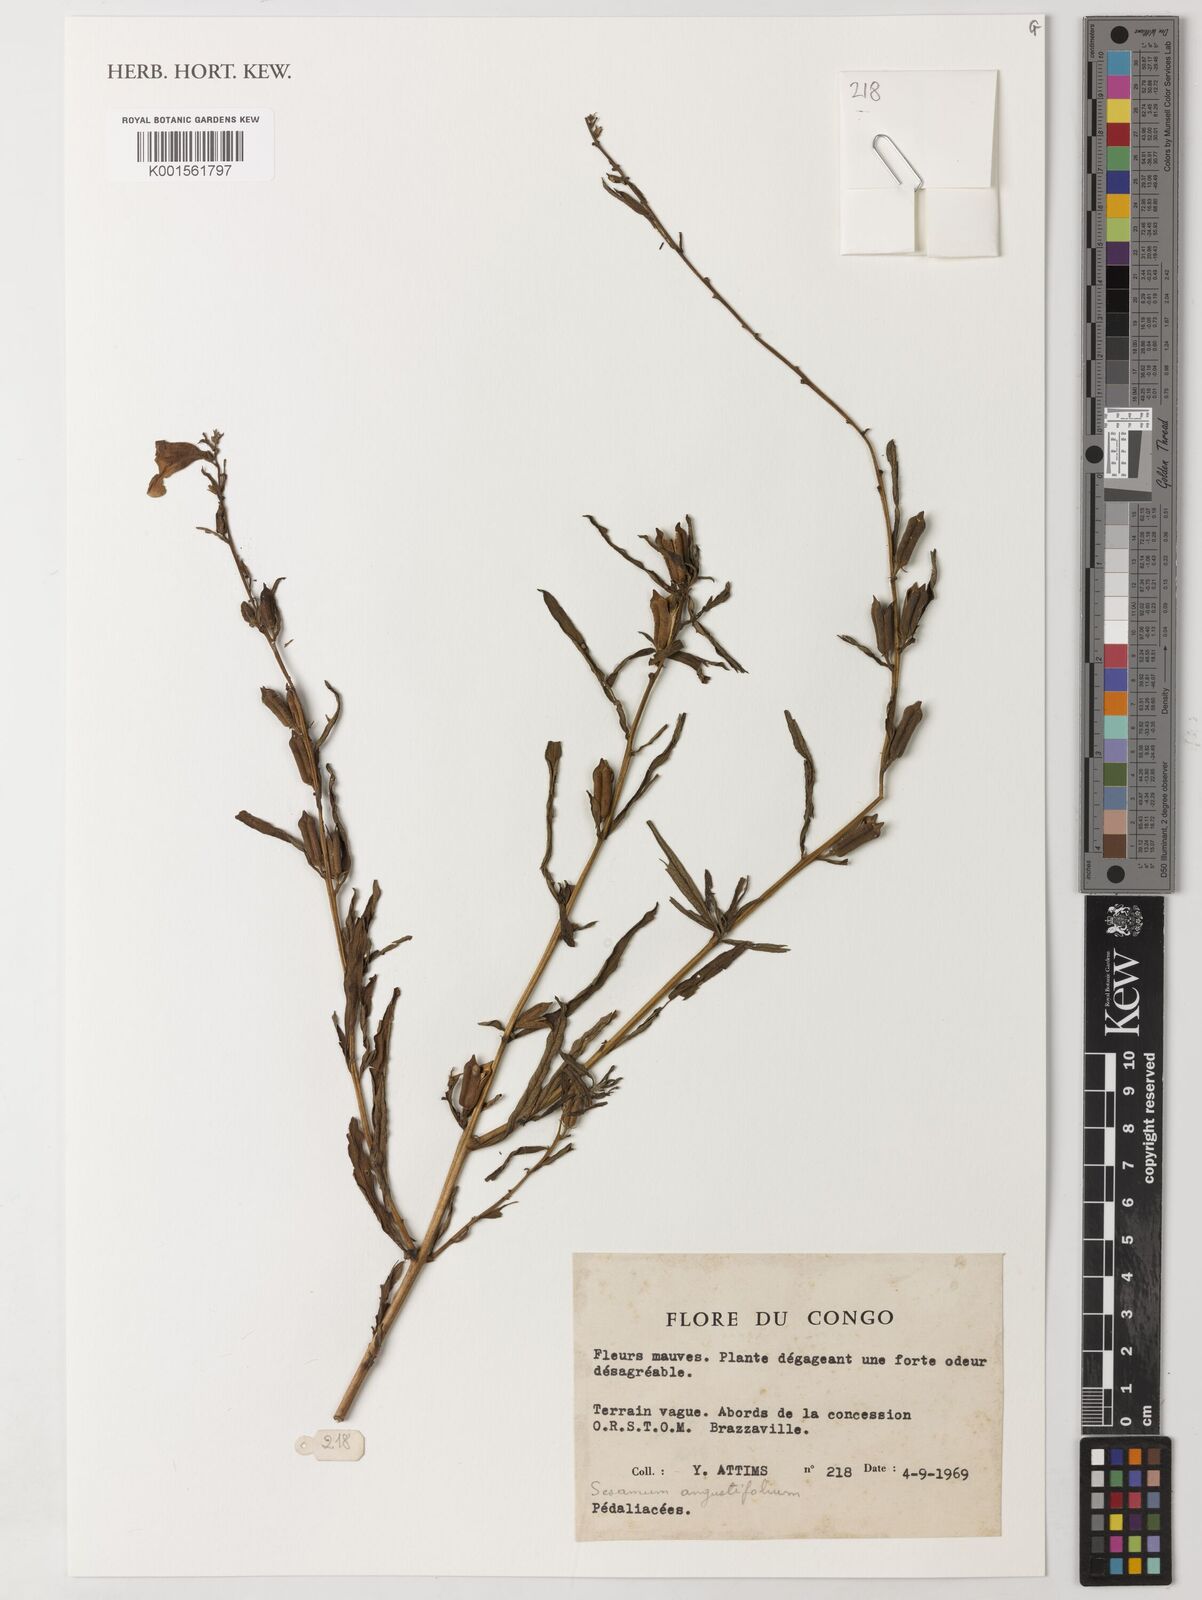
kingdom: Plantae
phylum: Tracheophyta
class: Magnoliopsida
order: Lamiales
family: Pedaliaceae
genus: Sesamum
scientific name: Sesamum angustifolium
